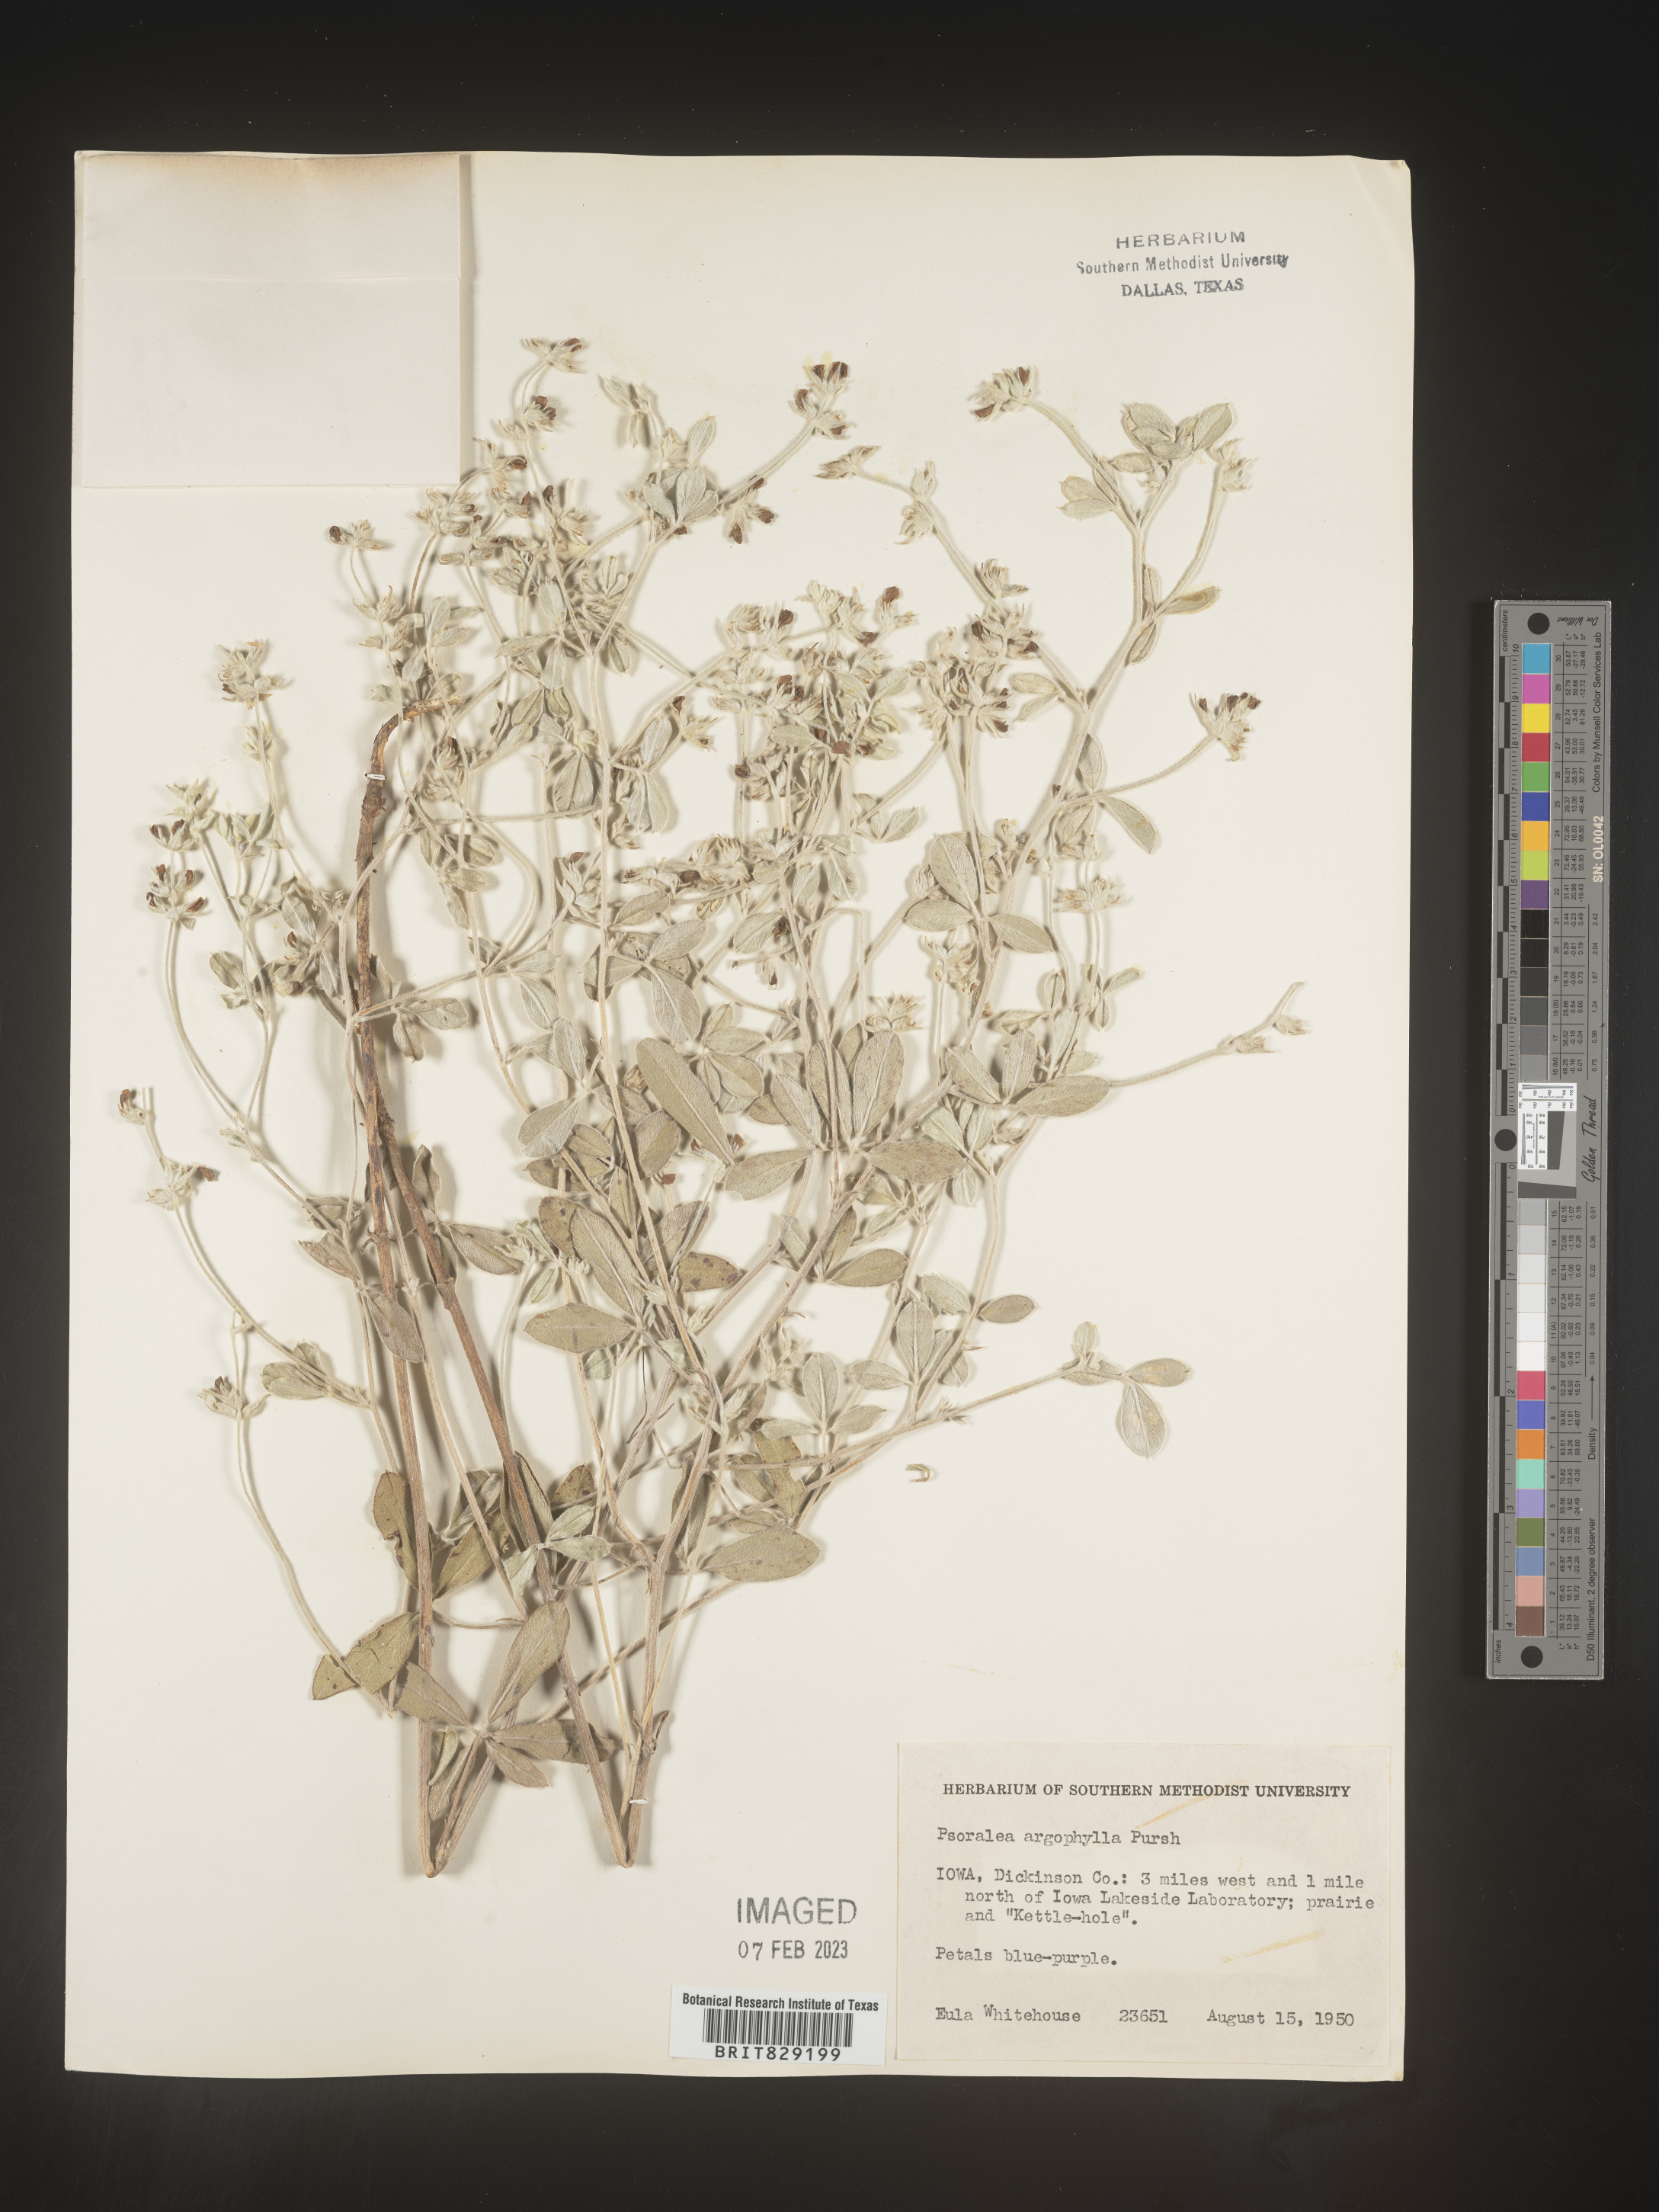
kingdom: Plantae
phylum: Tracheophyta
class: Magnoliopsida
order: Fabales
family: Fabaceae
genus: Pediomelum
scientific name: Pediomelum argophyllum
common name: Silver-leaved indian breadroot
